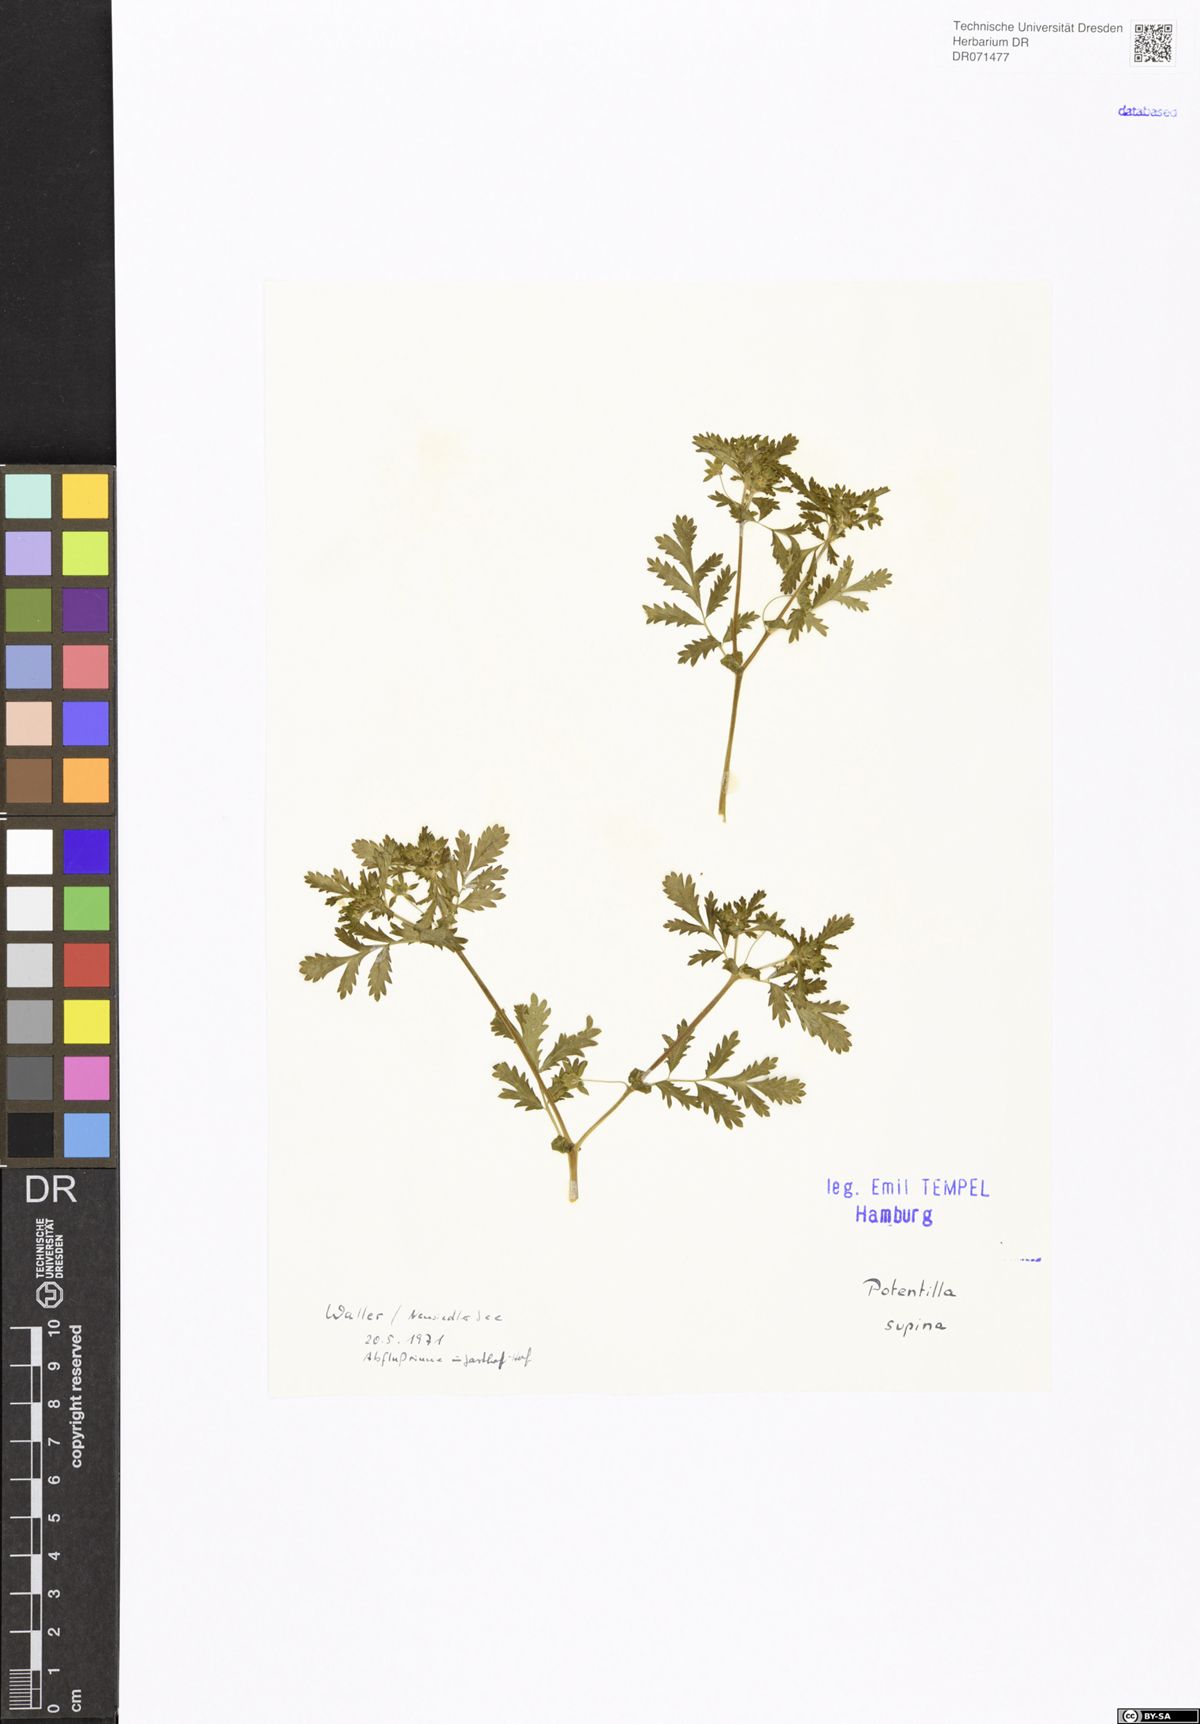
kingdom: Plantae
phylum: Tracheophyta
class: Magnoliopsida
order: Rosales
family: Rosaceae
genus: Potentilla
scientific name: Potentilla supina
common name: Prostrate cinquefoil
